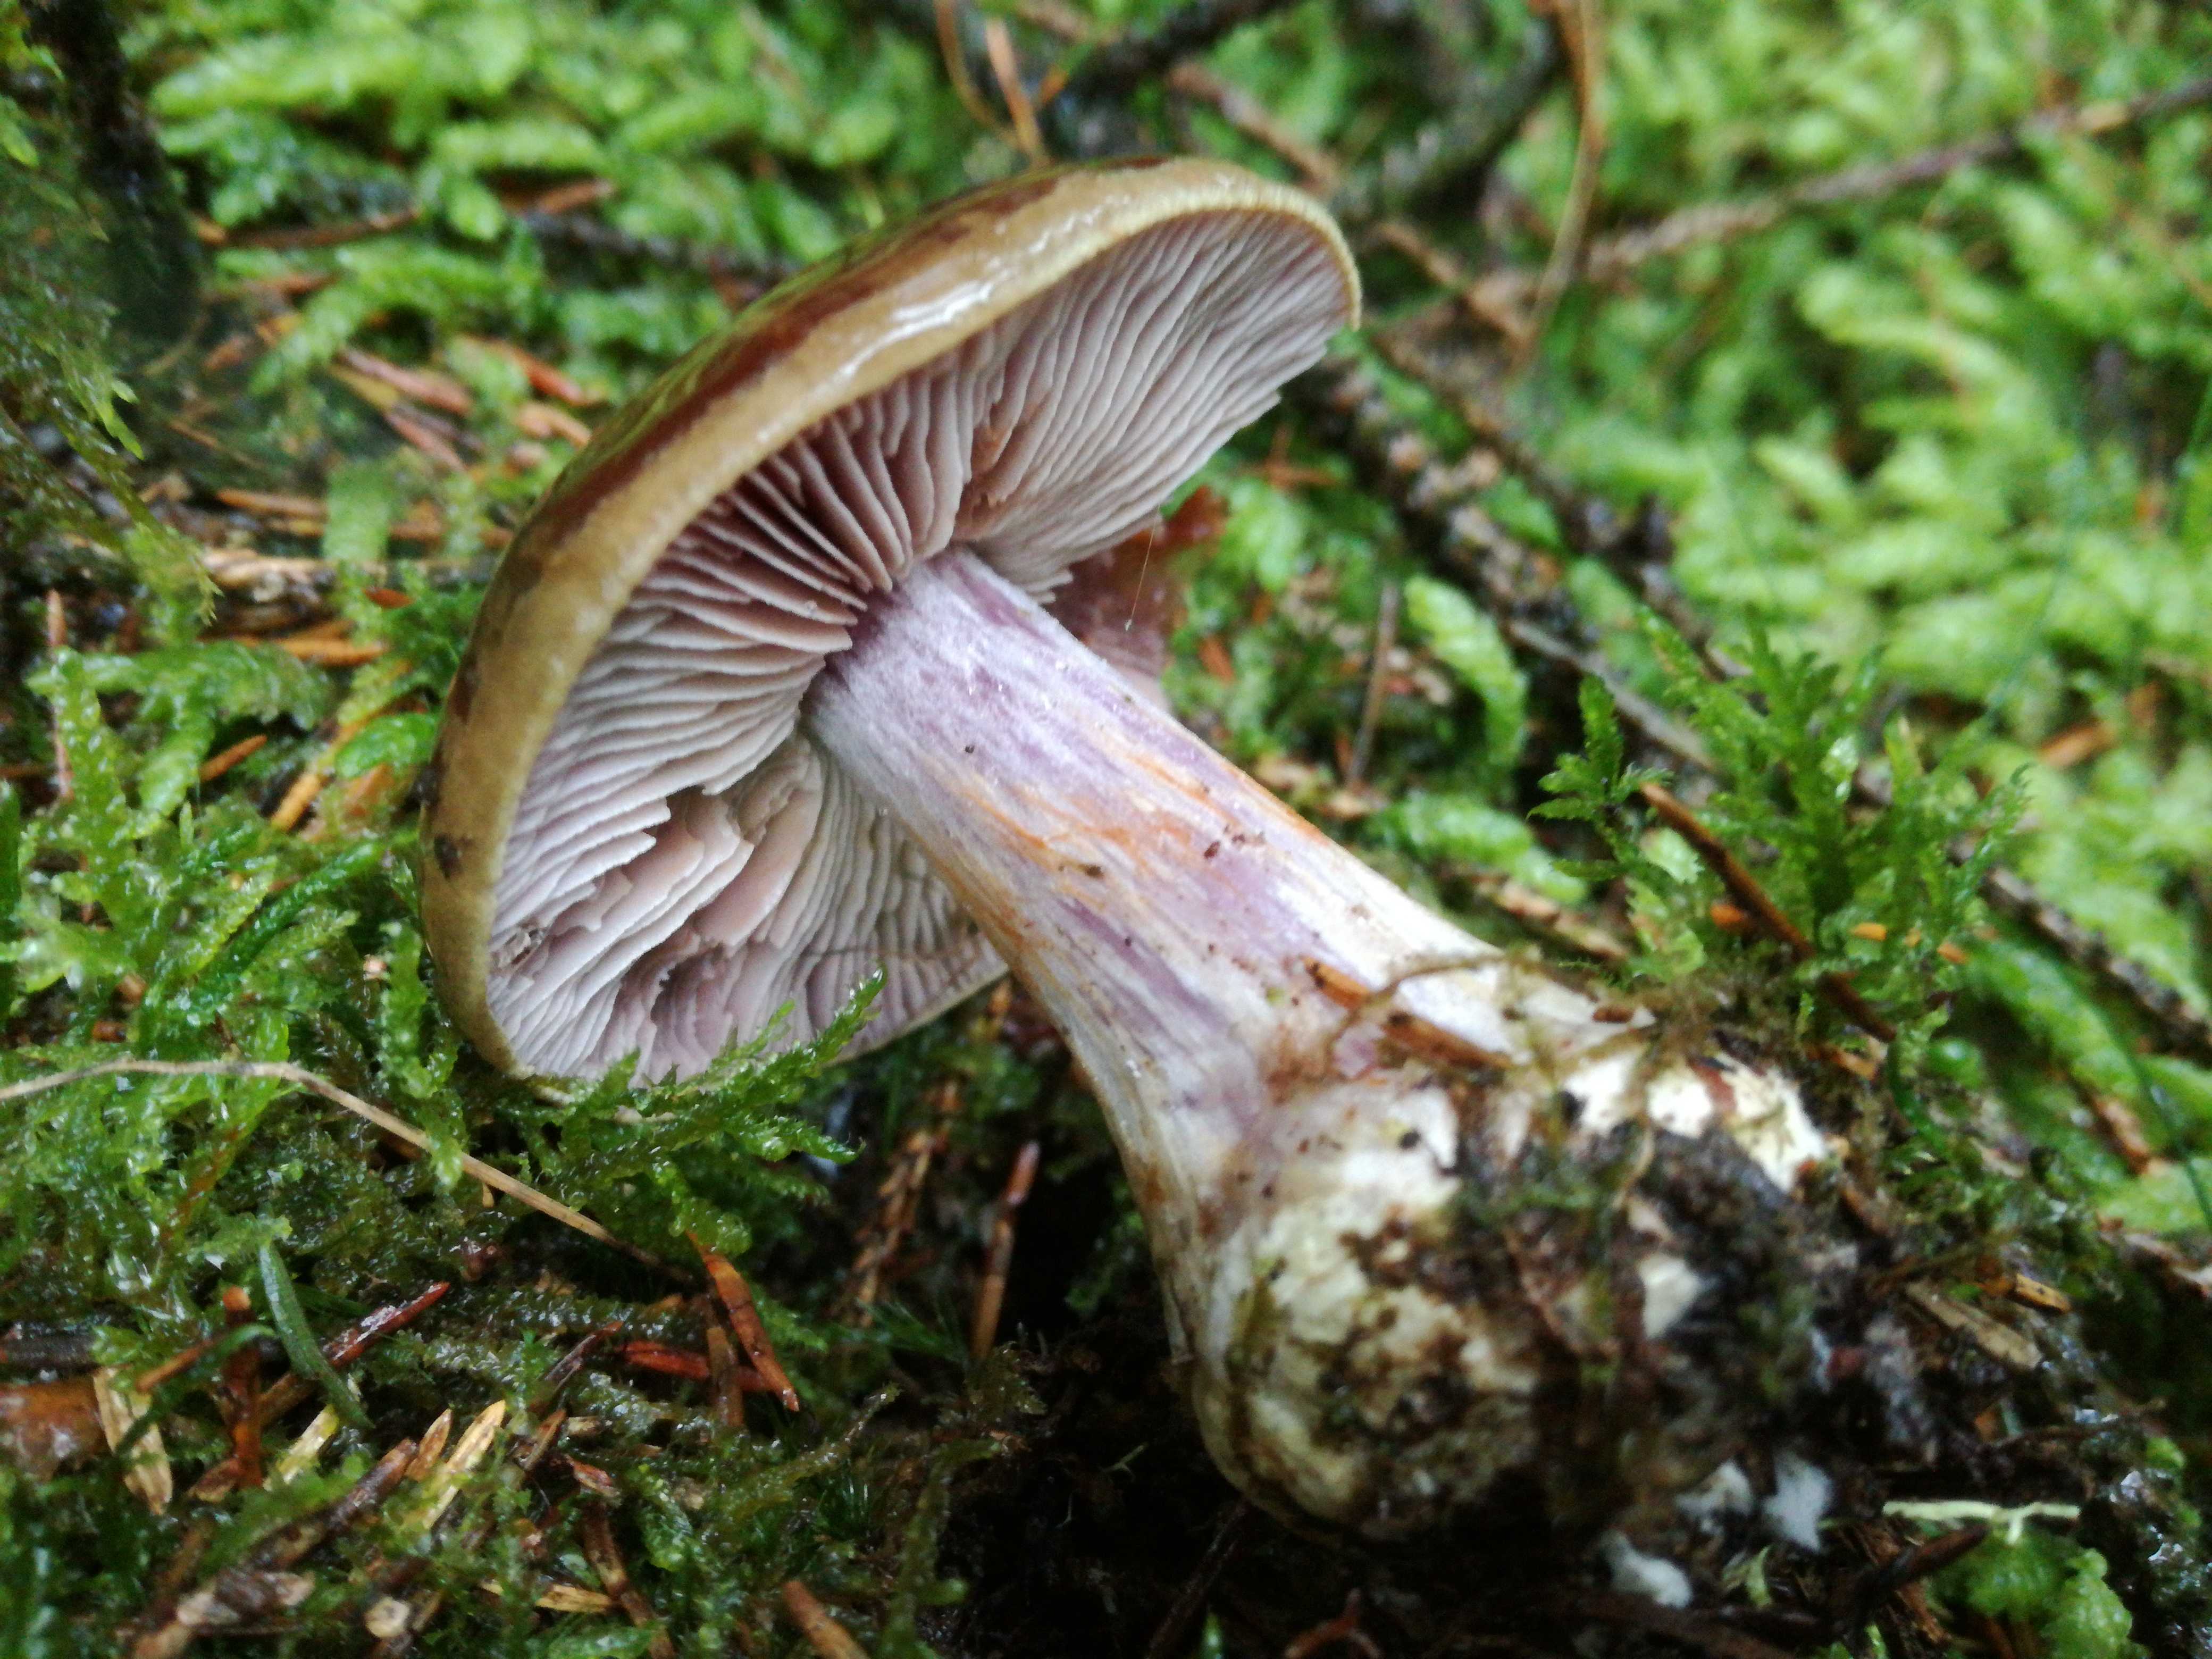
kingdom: Fungi
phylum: Basidiomycota
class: Agaricomycetes
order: Agaricales
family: Cortinariaceae
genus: Thaxterogaster
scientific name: Thaxterogaster sphagnophilus
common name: vandplettet slørhat
